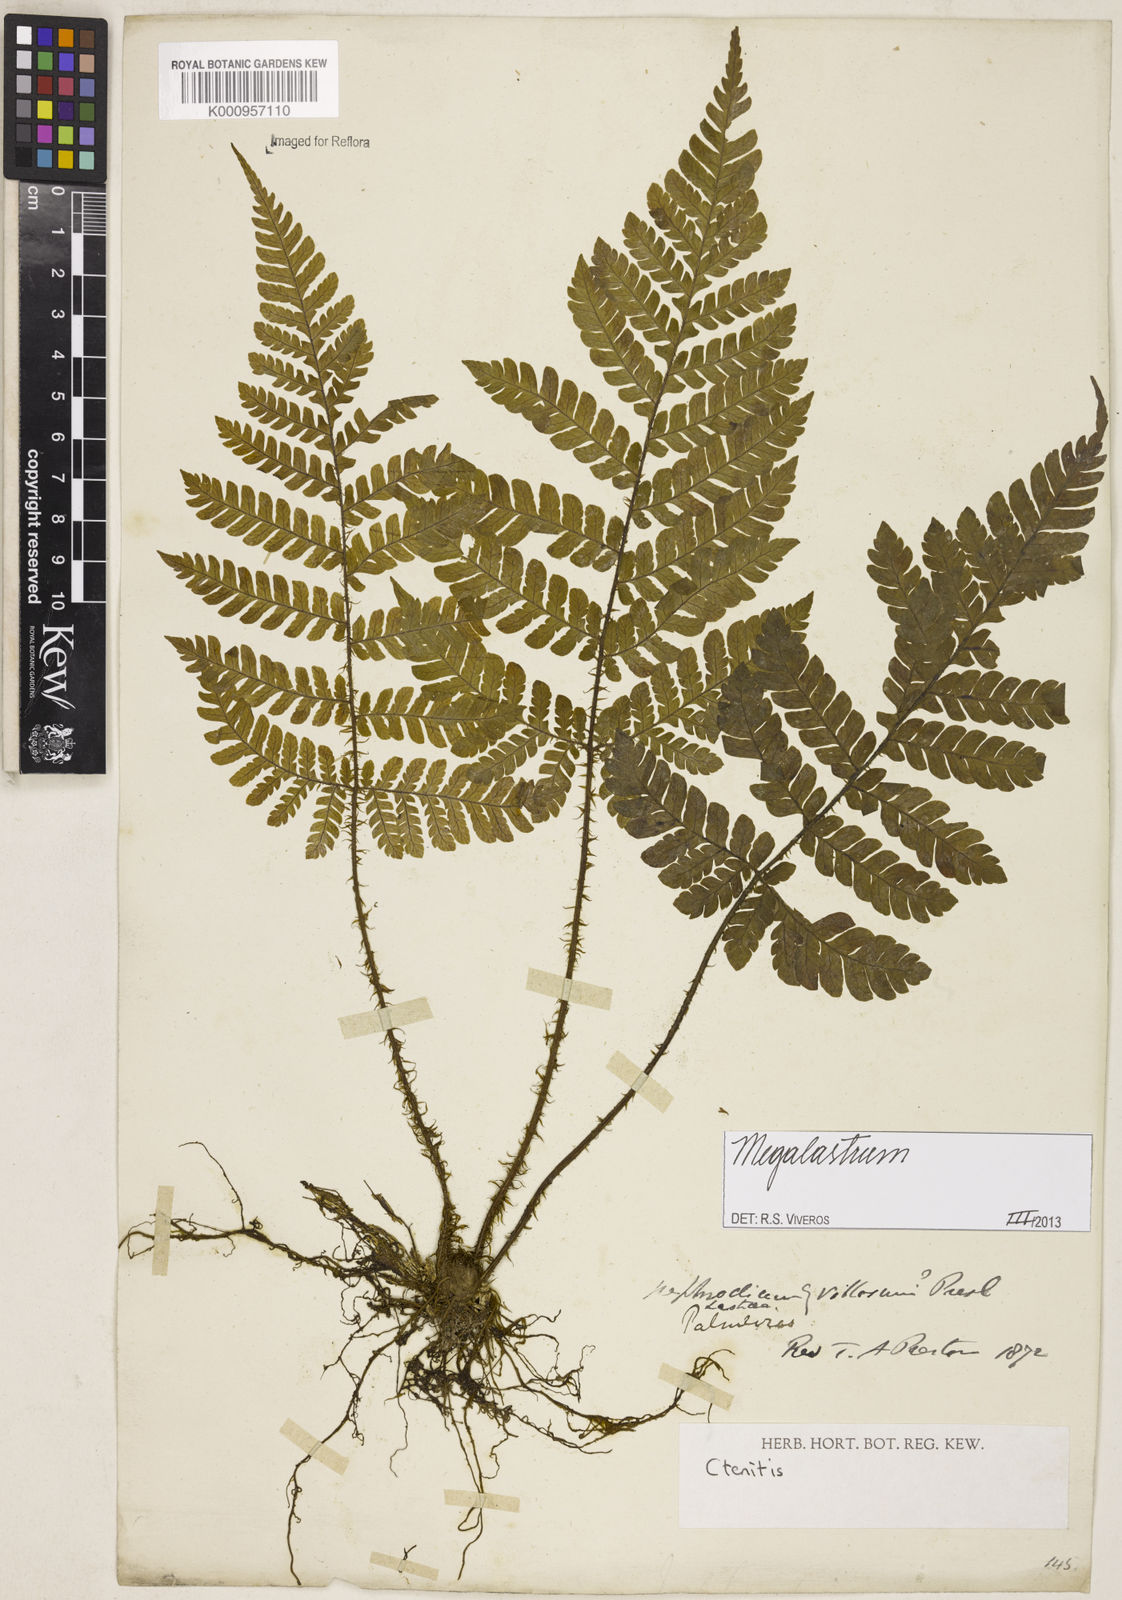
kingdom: Plantae
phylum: Tracheophyta
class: Polypodiopsida
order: Polypodiales
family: Dryopteridaceae
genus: Megalastrum
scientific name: Megalastrum
